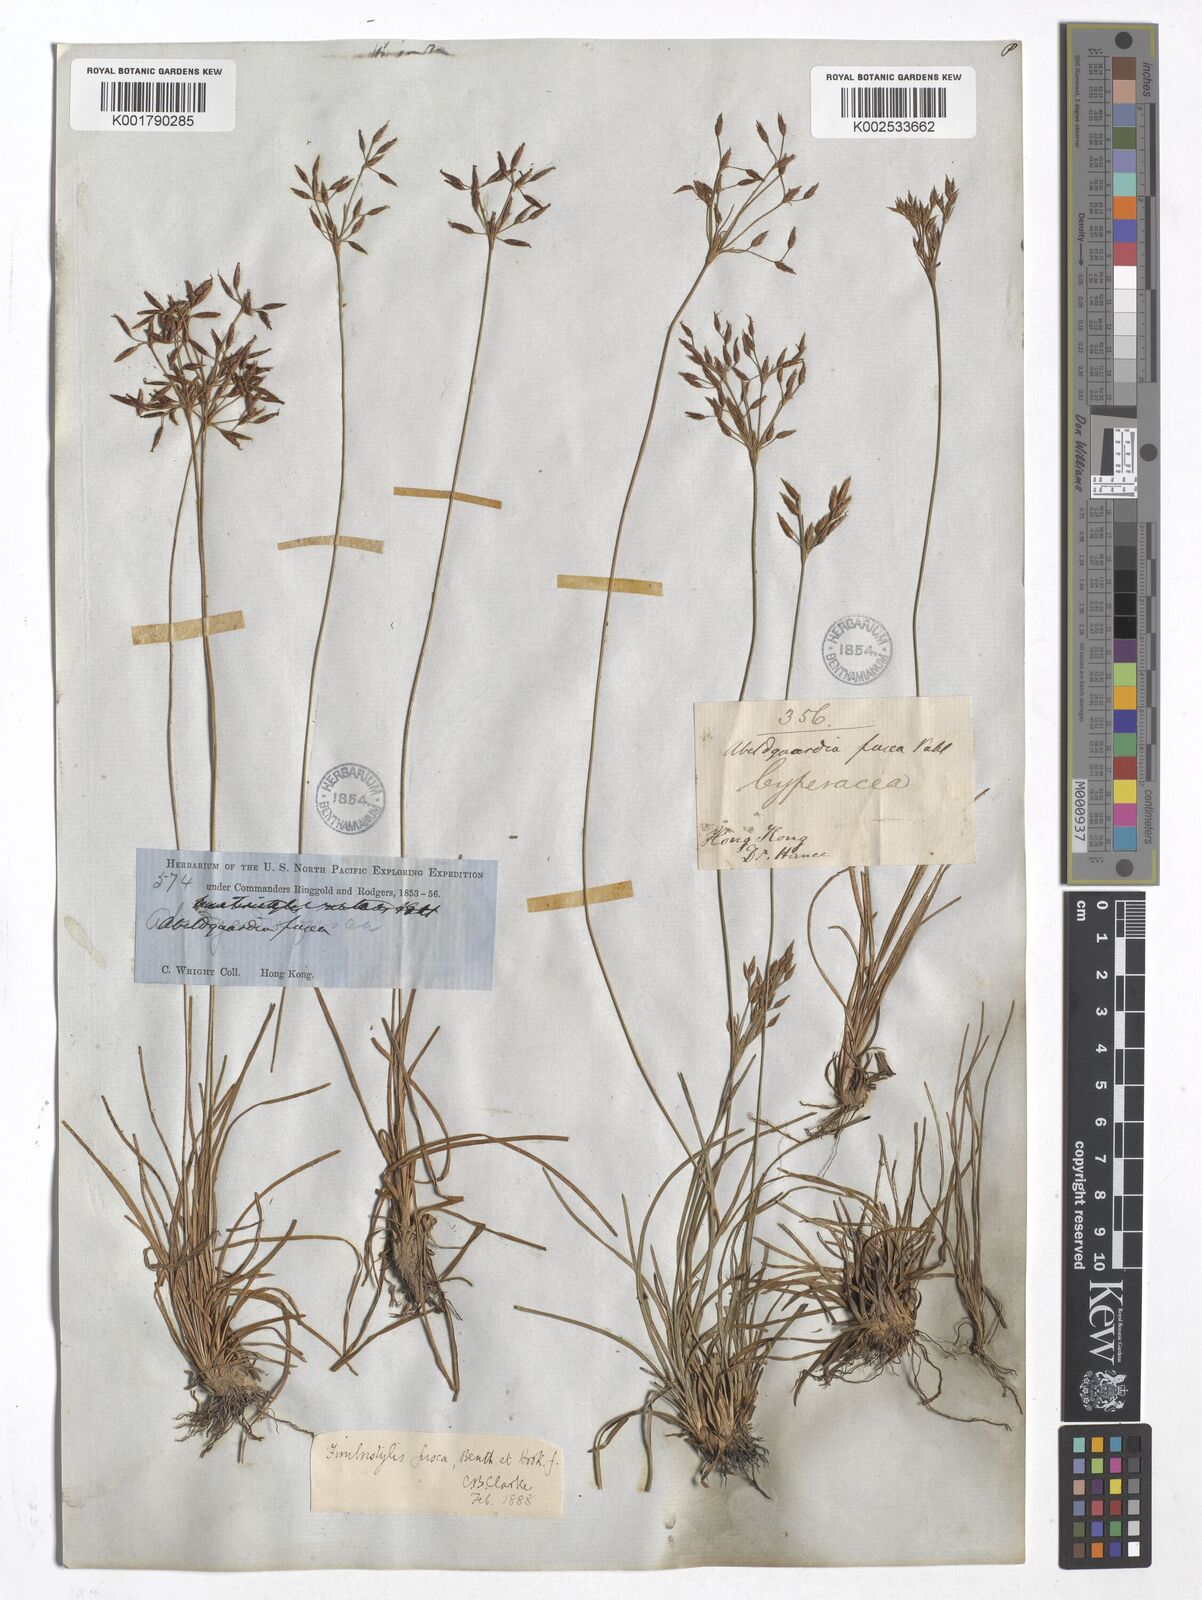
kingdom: Plantae
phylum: Tracheophyta
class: Liliopsida
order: Poales
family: Cyperaceae
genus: Fimbristylis
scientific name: Fimbristylis fusca
